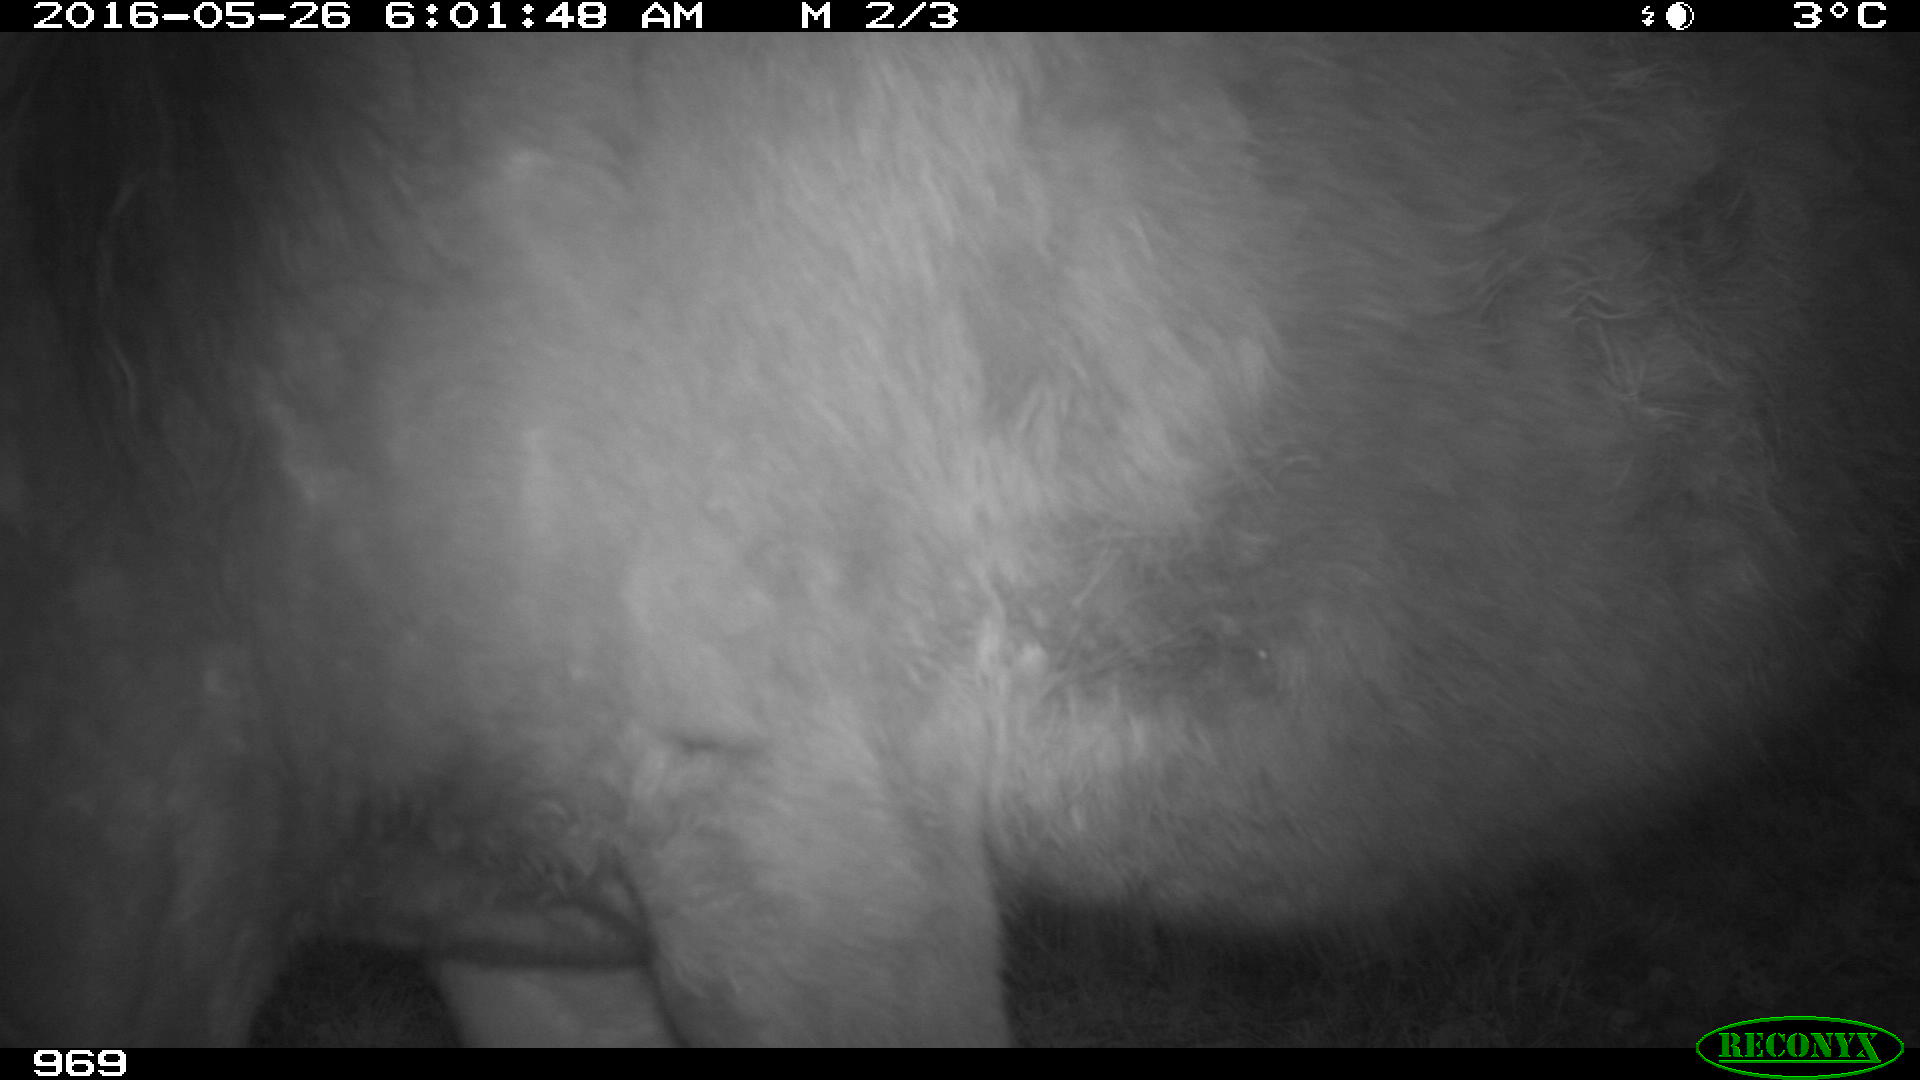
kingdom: Animalia
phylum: Chordata
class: Mammalia
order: Perissodactyla
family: Equidae
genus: Equus
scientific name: Equus caballus
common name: Horse
